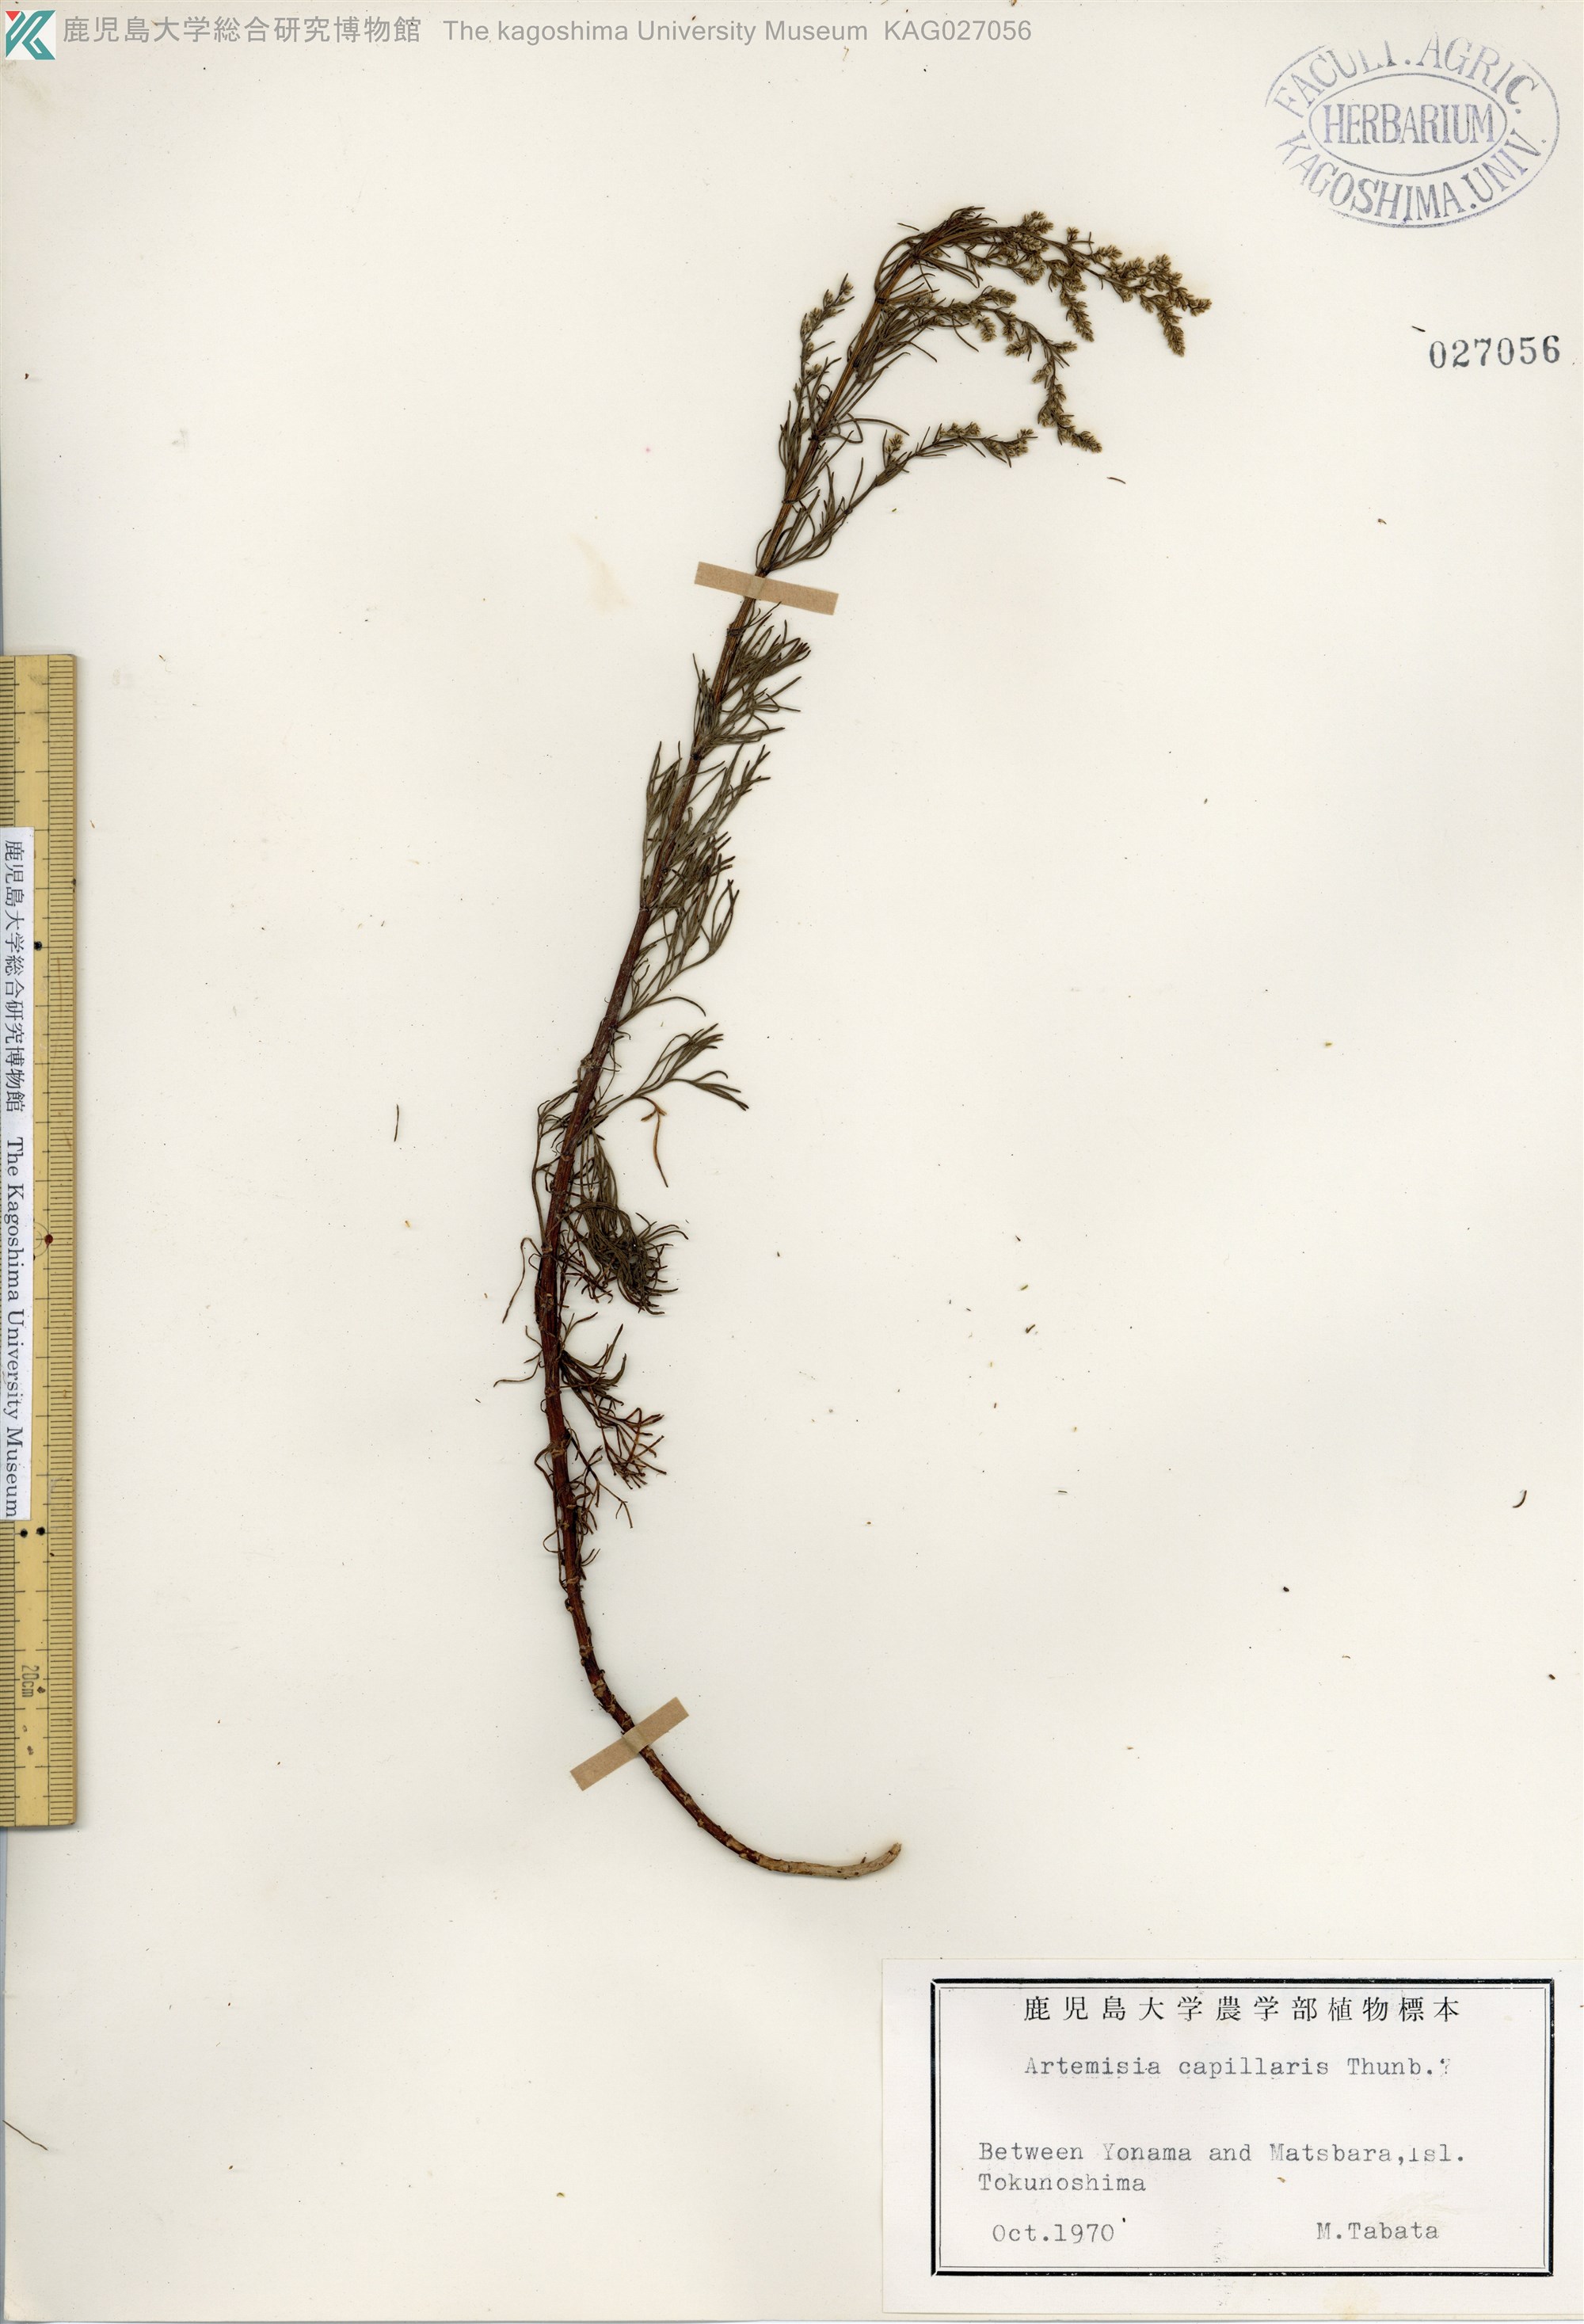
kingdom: Plantae
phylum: Tracheophyta
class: Magnoliopsida
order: Asterales
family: Asteraceae
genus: Artemisia
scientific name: Artemisia capillaris
